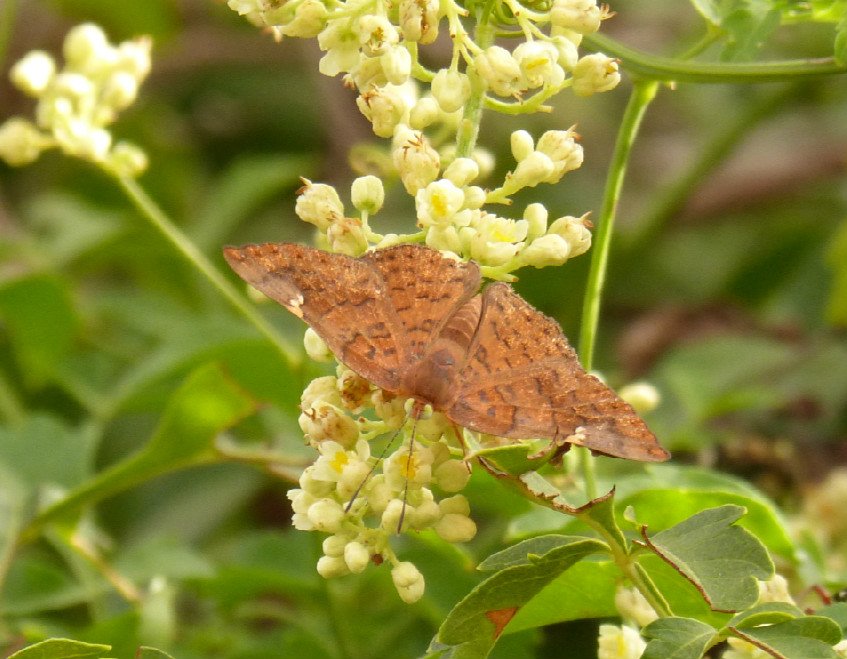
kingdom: Animalia
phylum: Arthropoda
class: Insecta
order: Lepidoptera
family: Lycaenidae
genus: Emesis
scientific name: Emesis emesia
